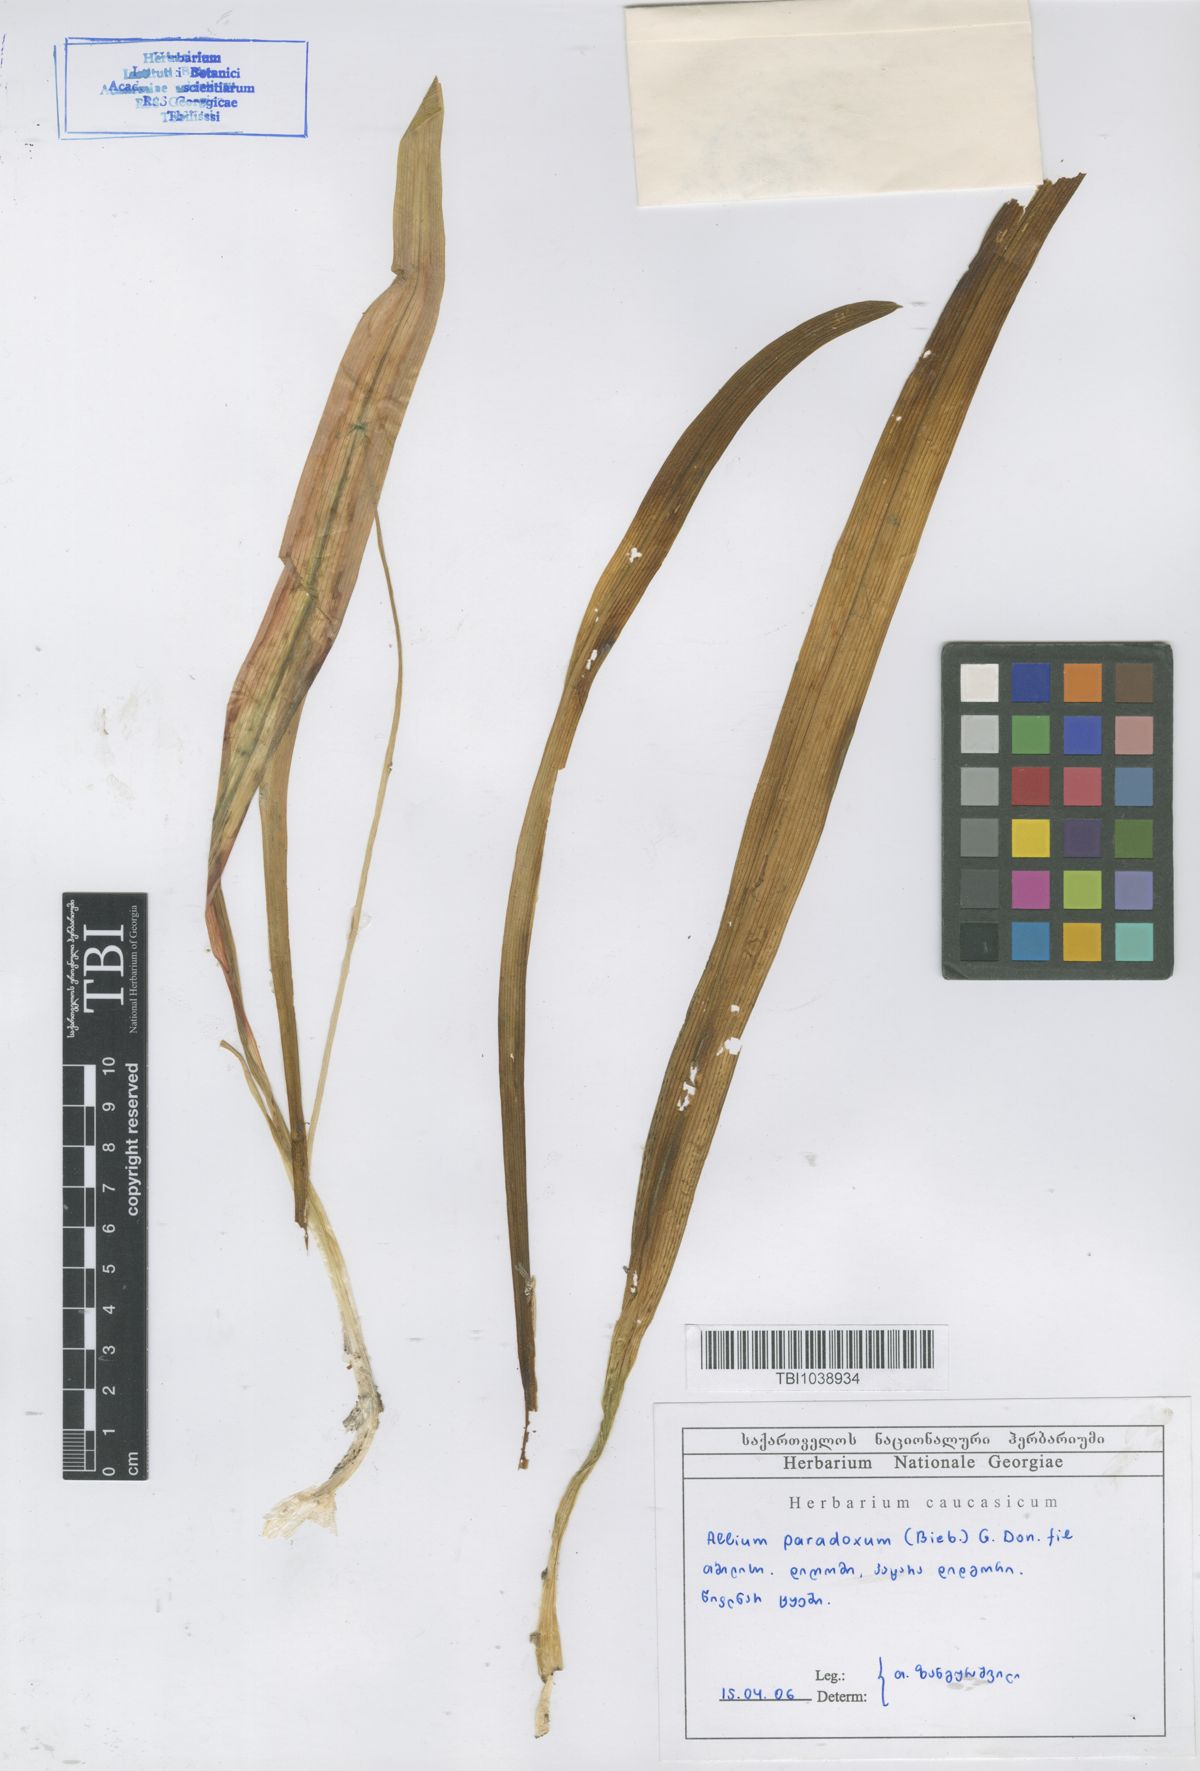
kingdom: Plantae
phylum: Tracheophyta
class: Liliopsida
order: Asparagales
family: Amaryllidaceae
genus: Allium
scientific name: Allium paradoxum
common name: Few-flowered garlic
